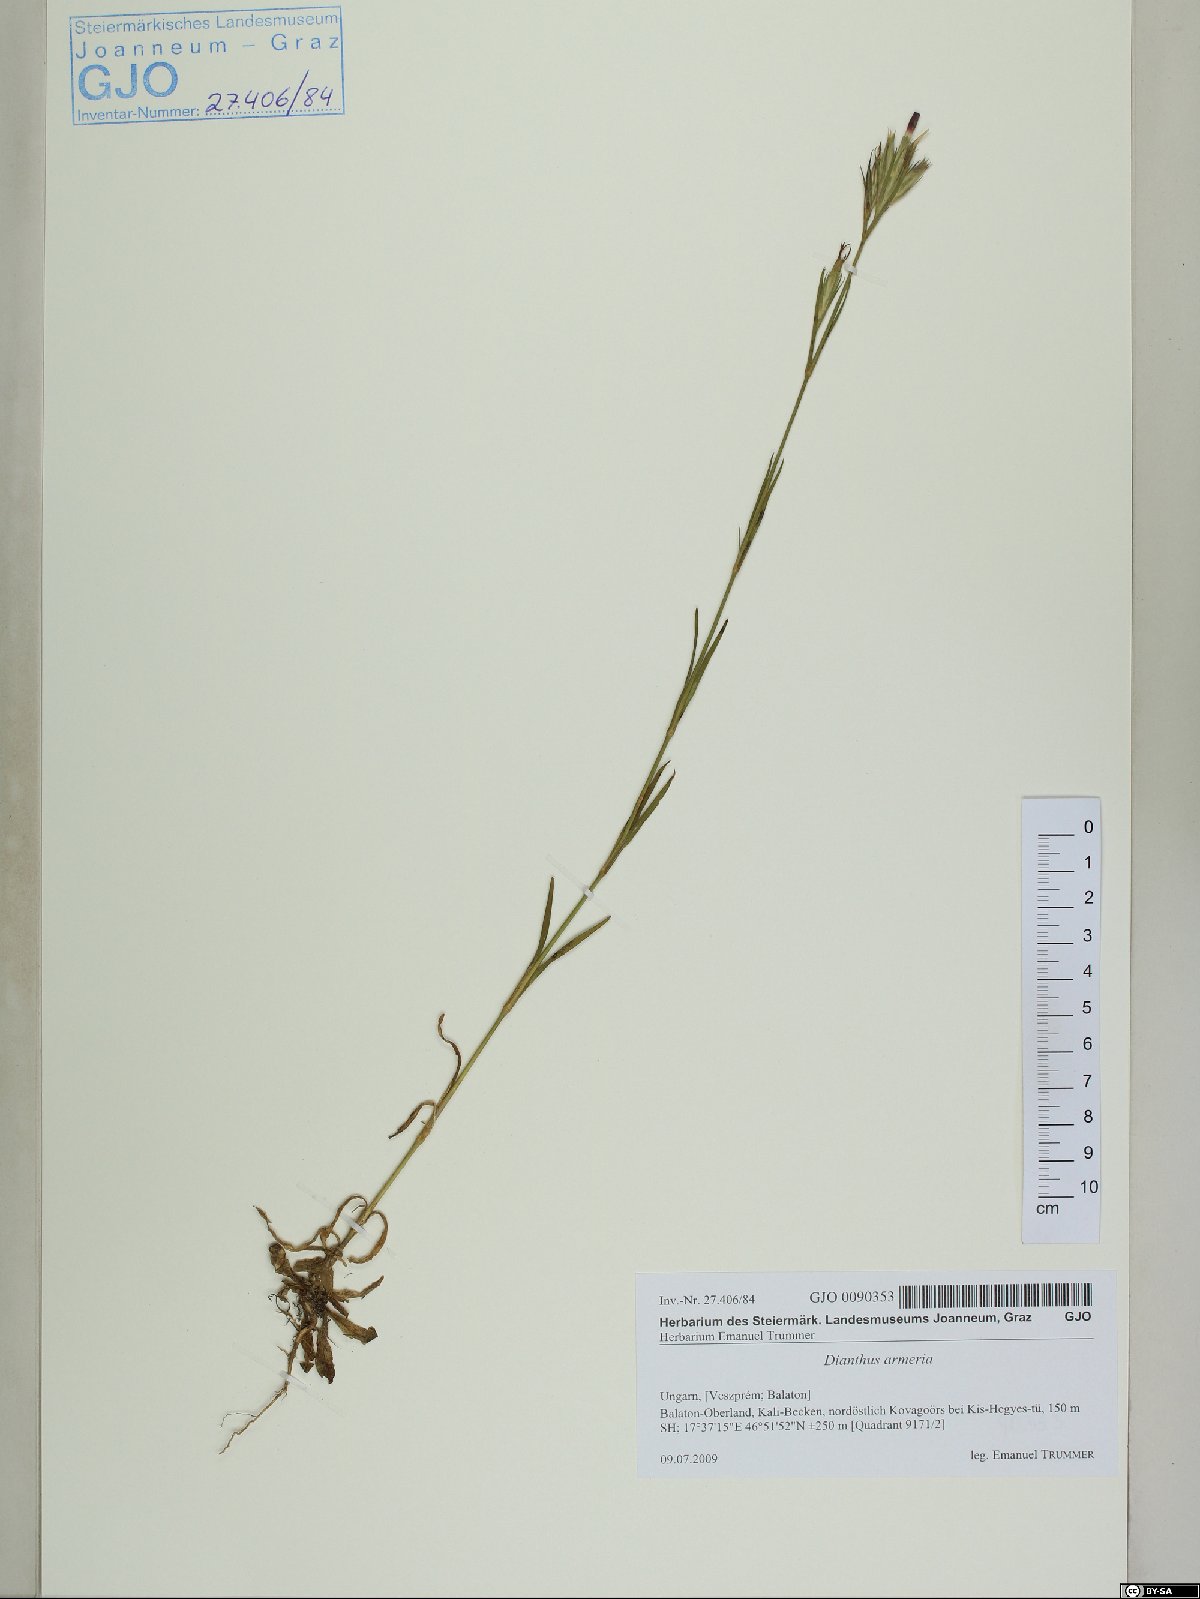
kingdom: Plantae
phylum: Tracheophyta
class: Magnoliopsida
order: Caryophyllales
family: Caryophyllaceae
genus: Dianthus
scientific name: Dianthus armeria
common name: Deptford pink
